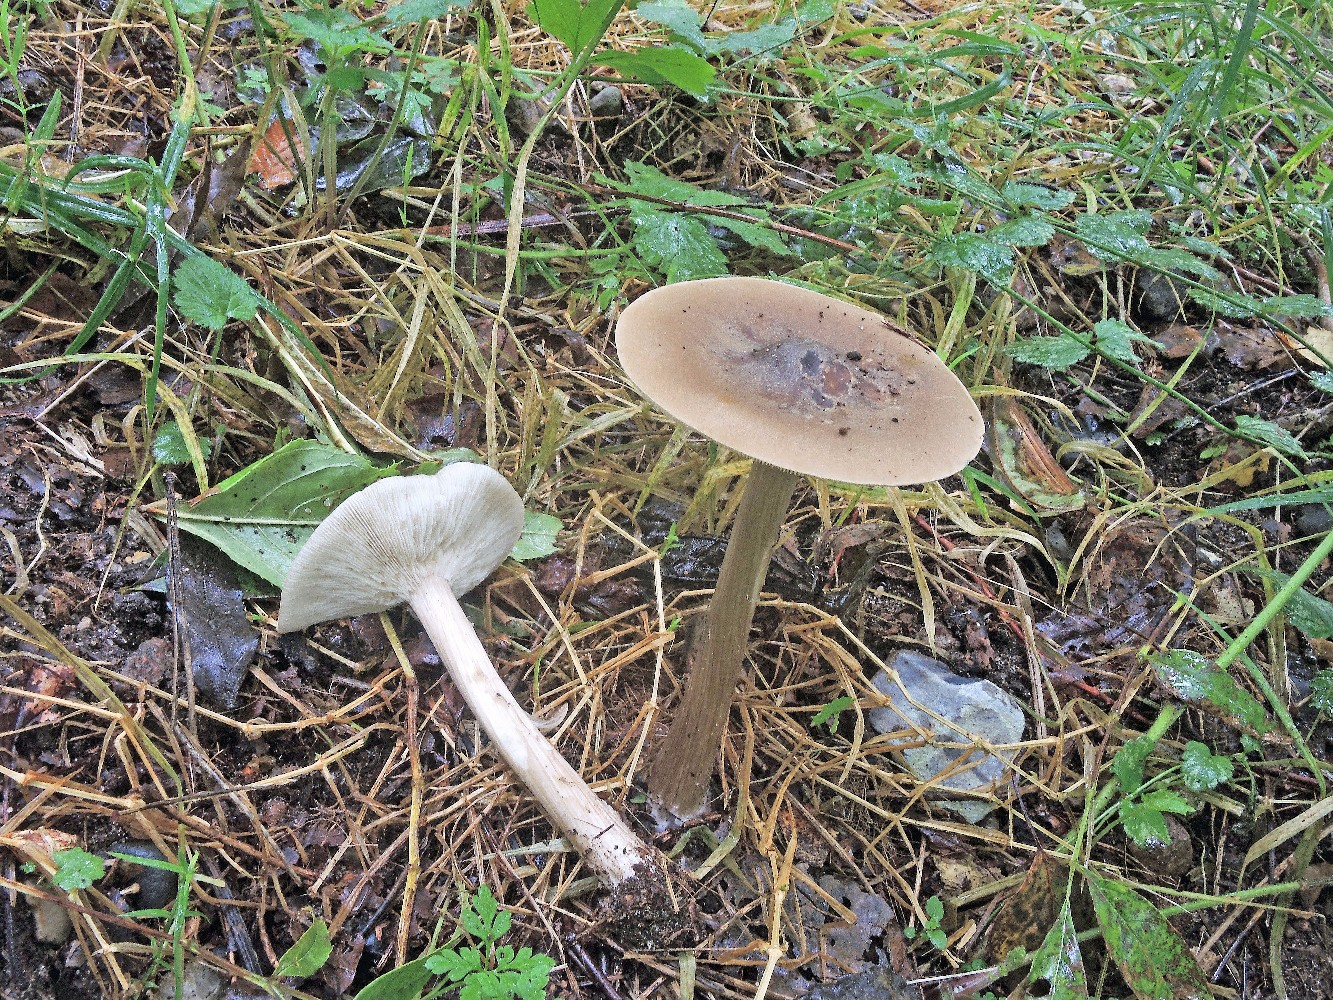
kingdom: Fungi
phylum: Basidiomycota
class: Agaricomycetes
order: Agaricales
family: Tricholomataceae
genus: Melanoleuca
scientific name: Melanoleuca grammopodia
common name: stribestokket munkehat
